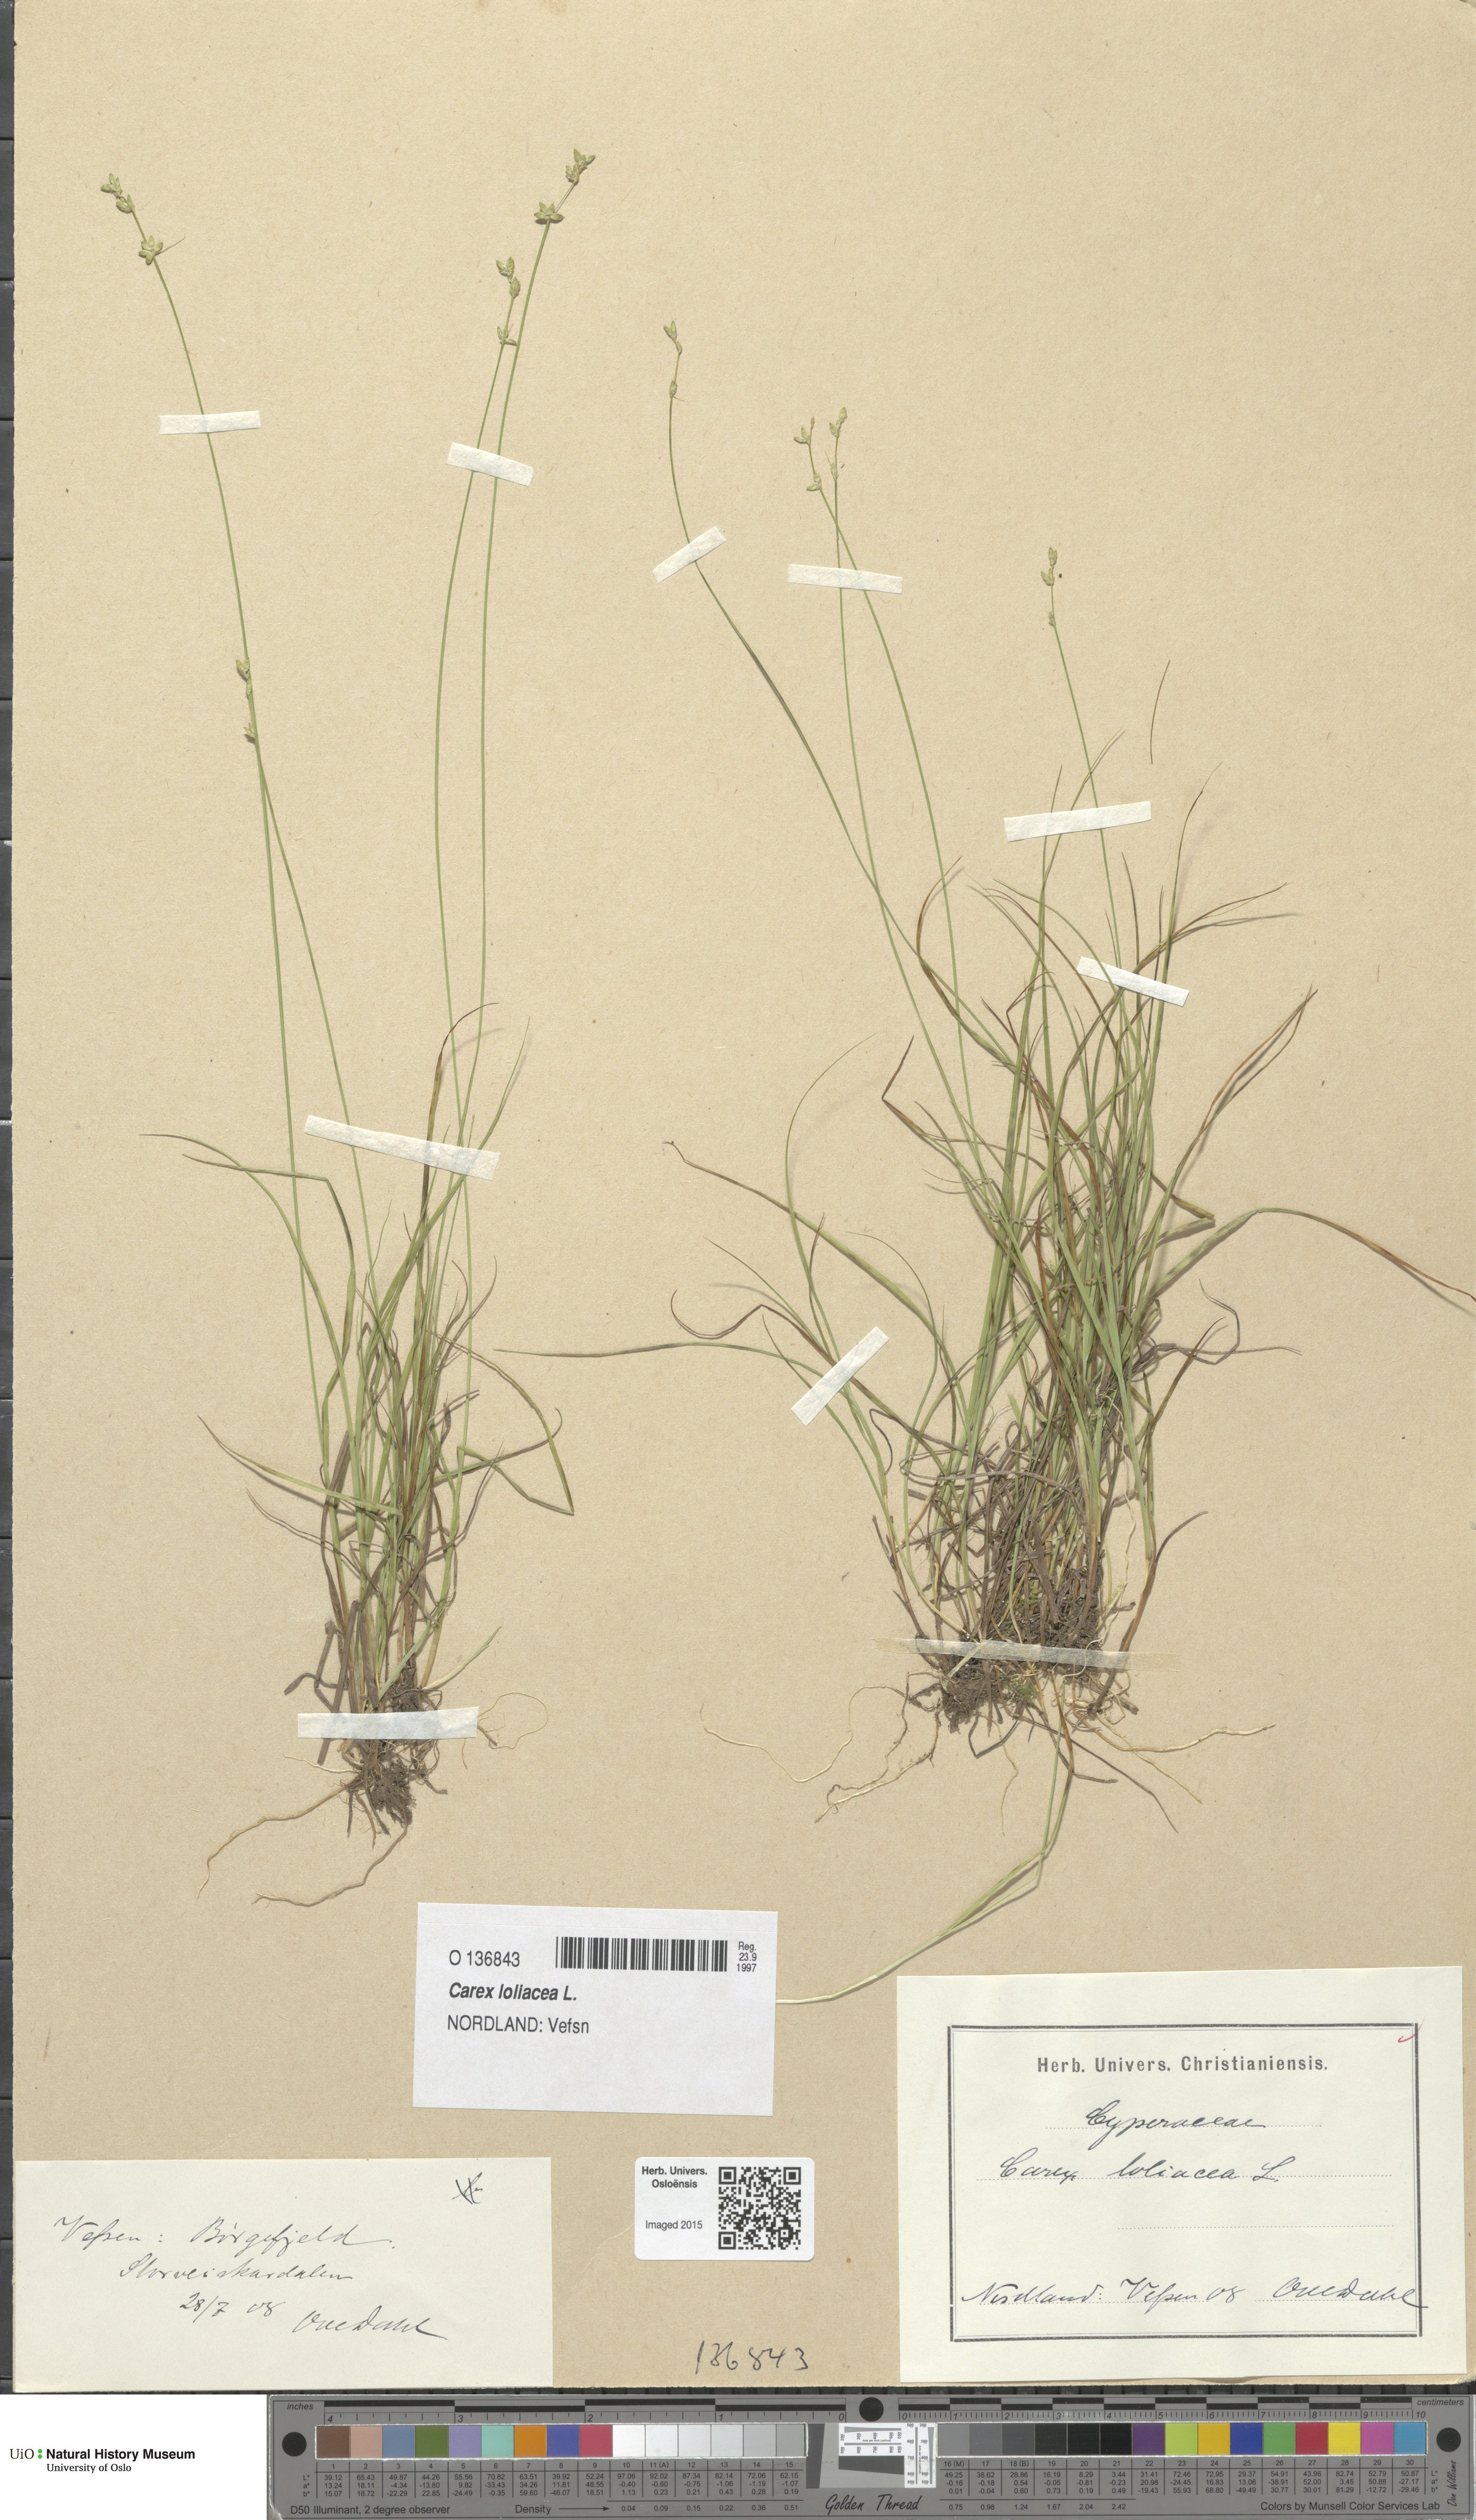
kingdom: Plantae
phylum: Tracheophyta
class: Liliopsida
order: Poales
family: Cyperaceae
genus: Carex
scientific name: Carex loliacea
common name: Ryegrass sedge
